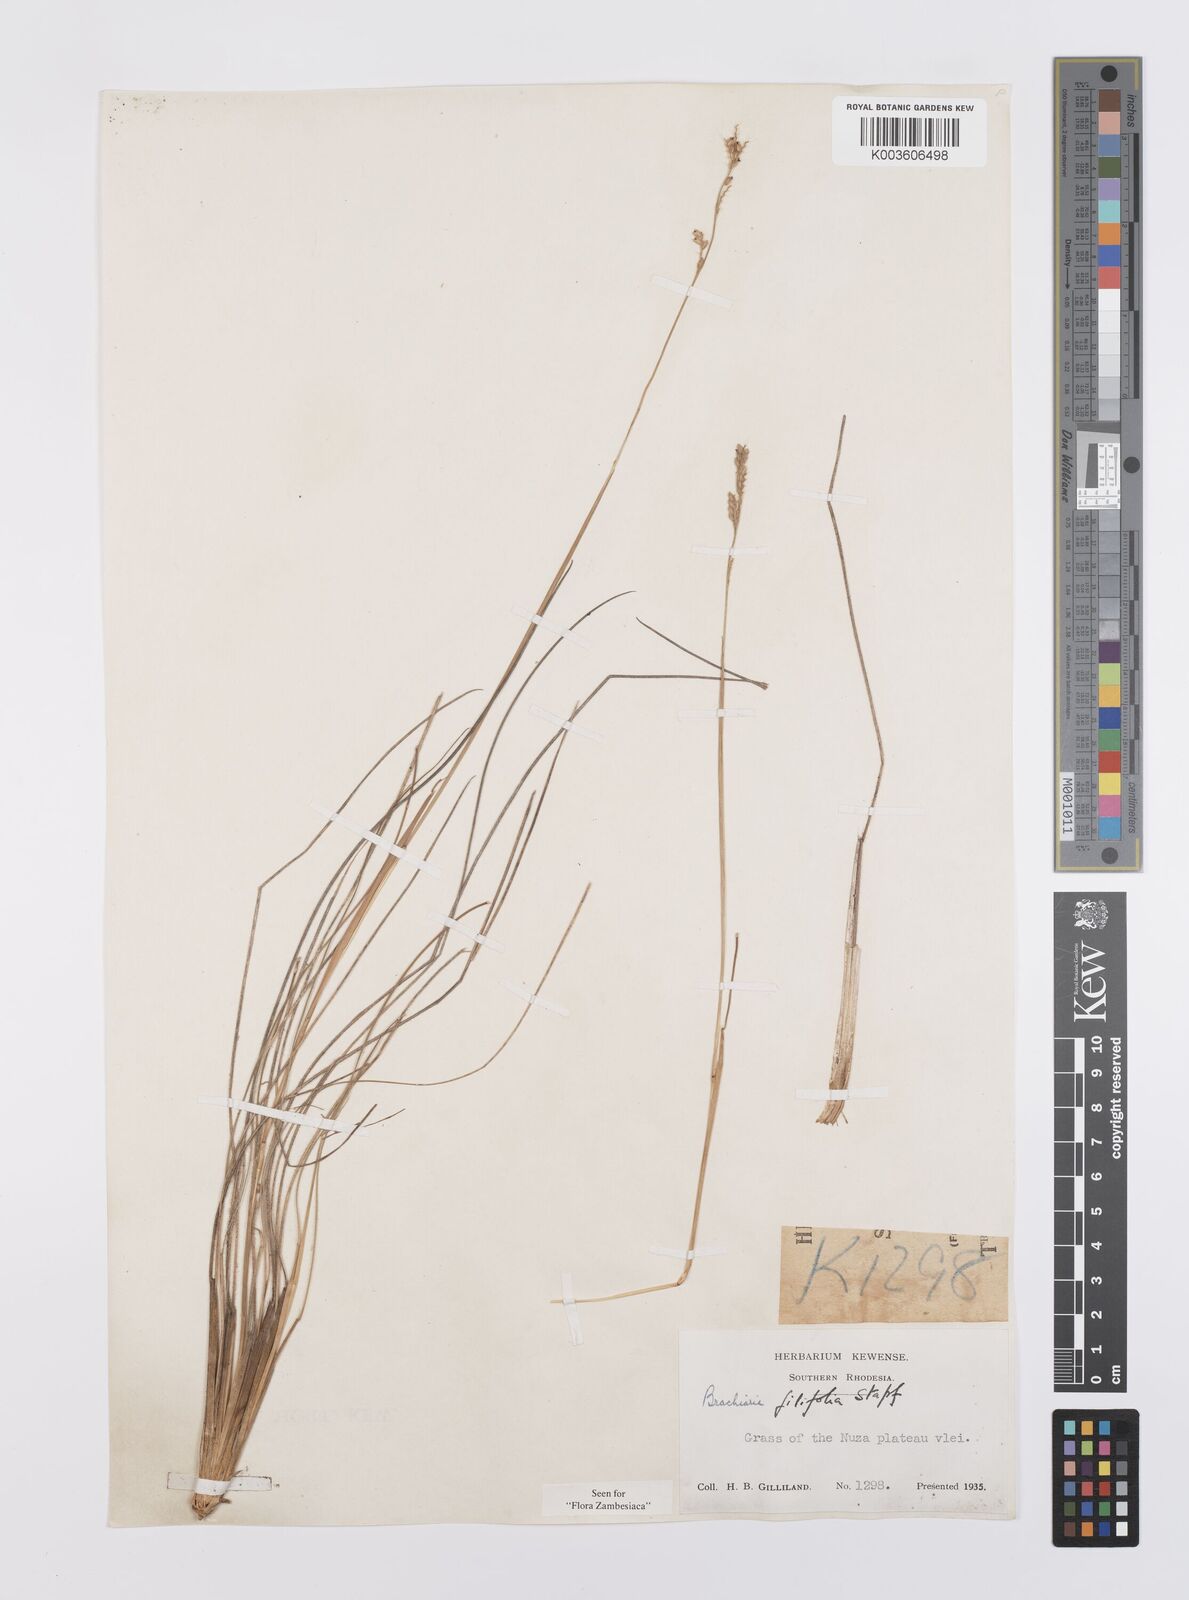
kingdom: Plantae
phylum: Tracheophyta
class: Liliopsida
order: Poales
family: Poaceae
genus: Urochloa
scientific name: Urochloa subulifolia
